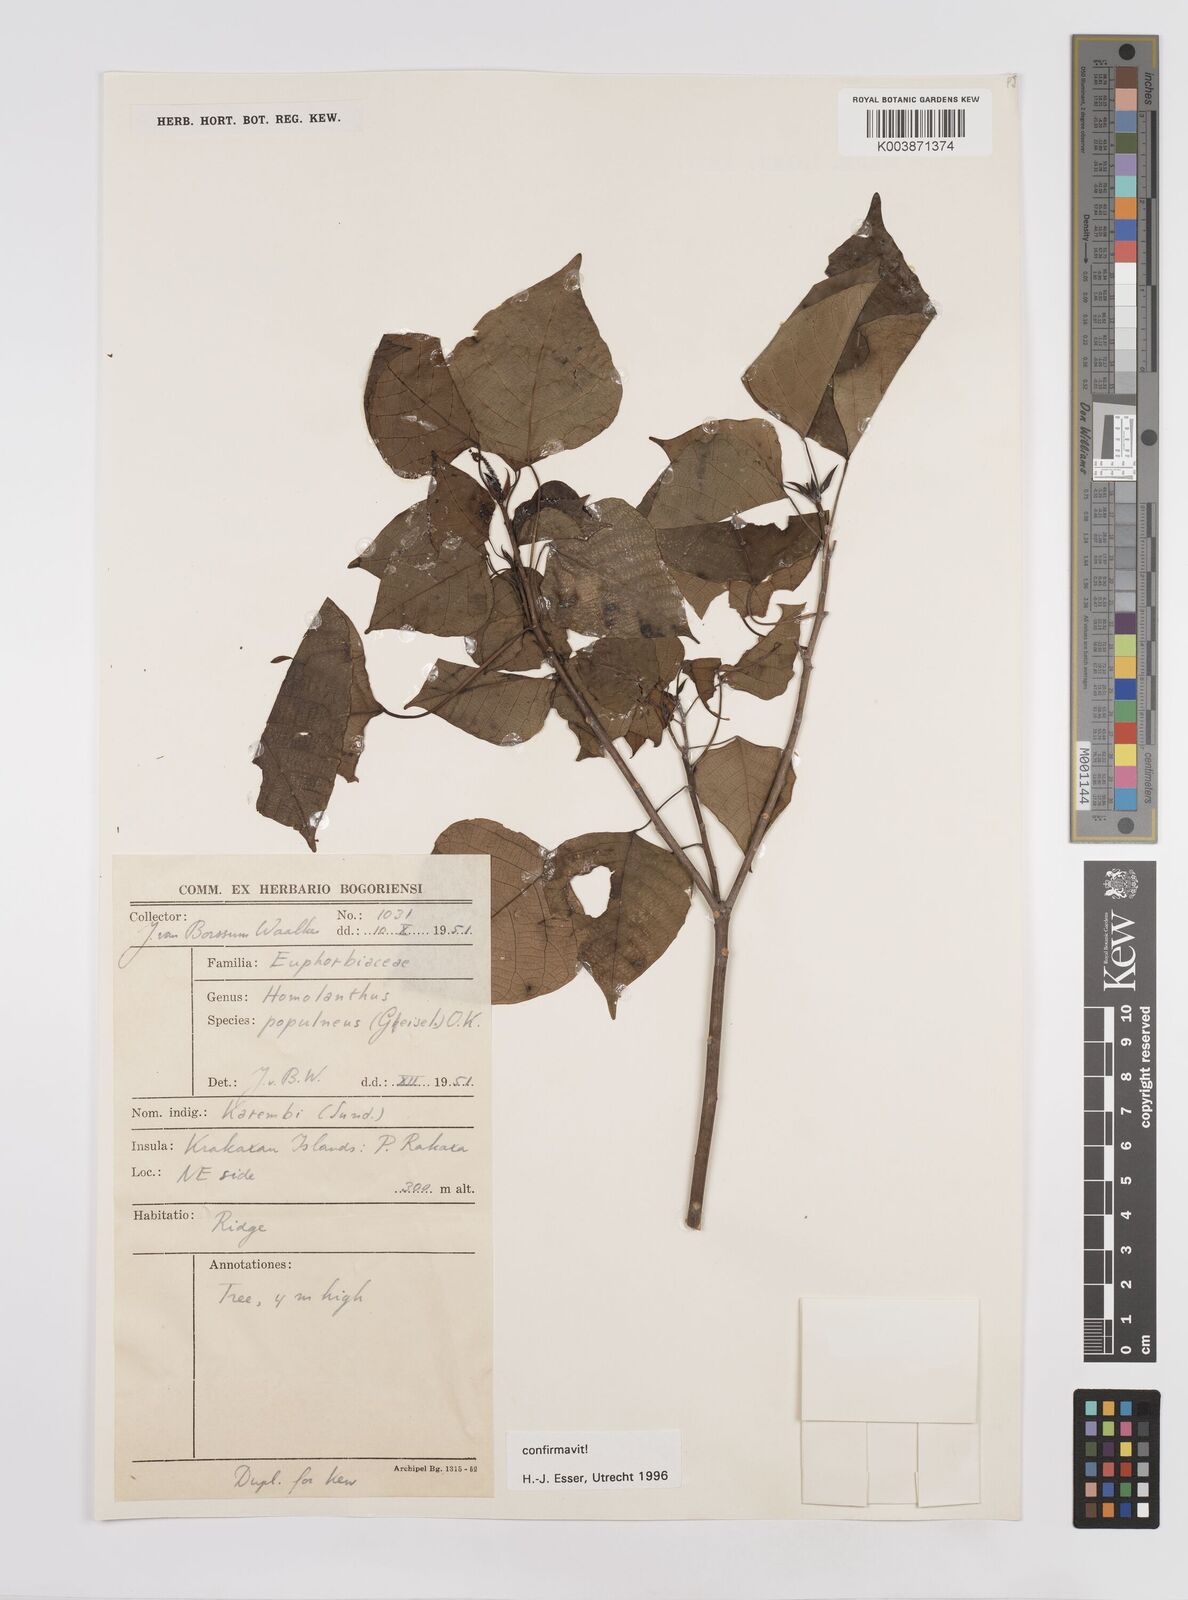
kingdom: Plantae
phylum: Tracheophyta
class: Magnoliopsida
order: Malpighiales
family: Euphorbiaceae
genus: Homalanthus
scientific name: Homalanthus populneus
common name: Spurge
